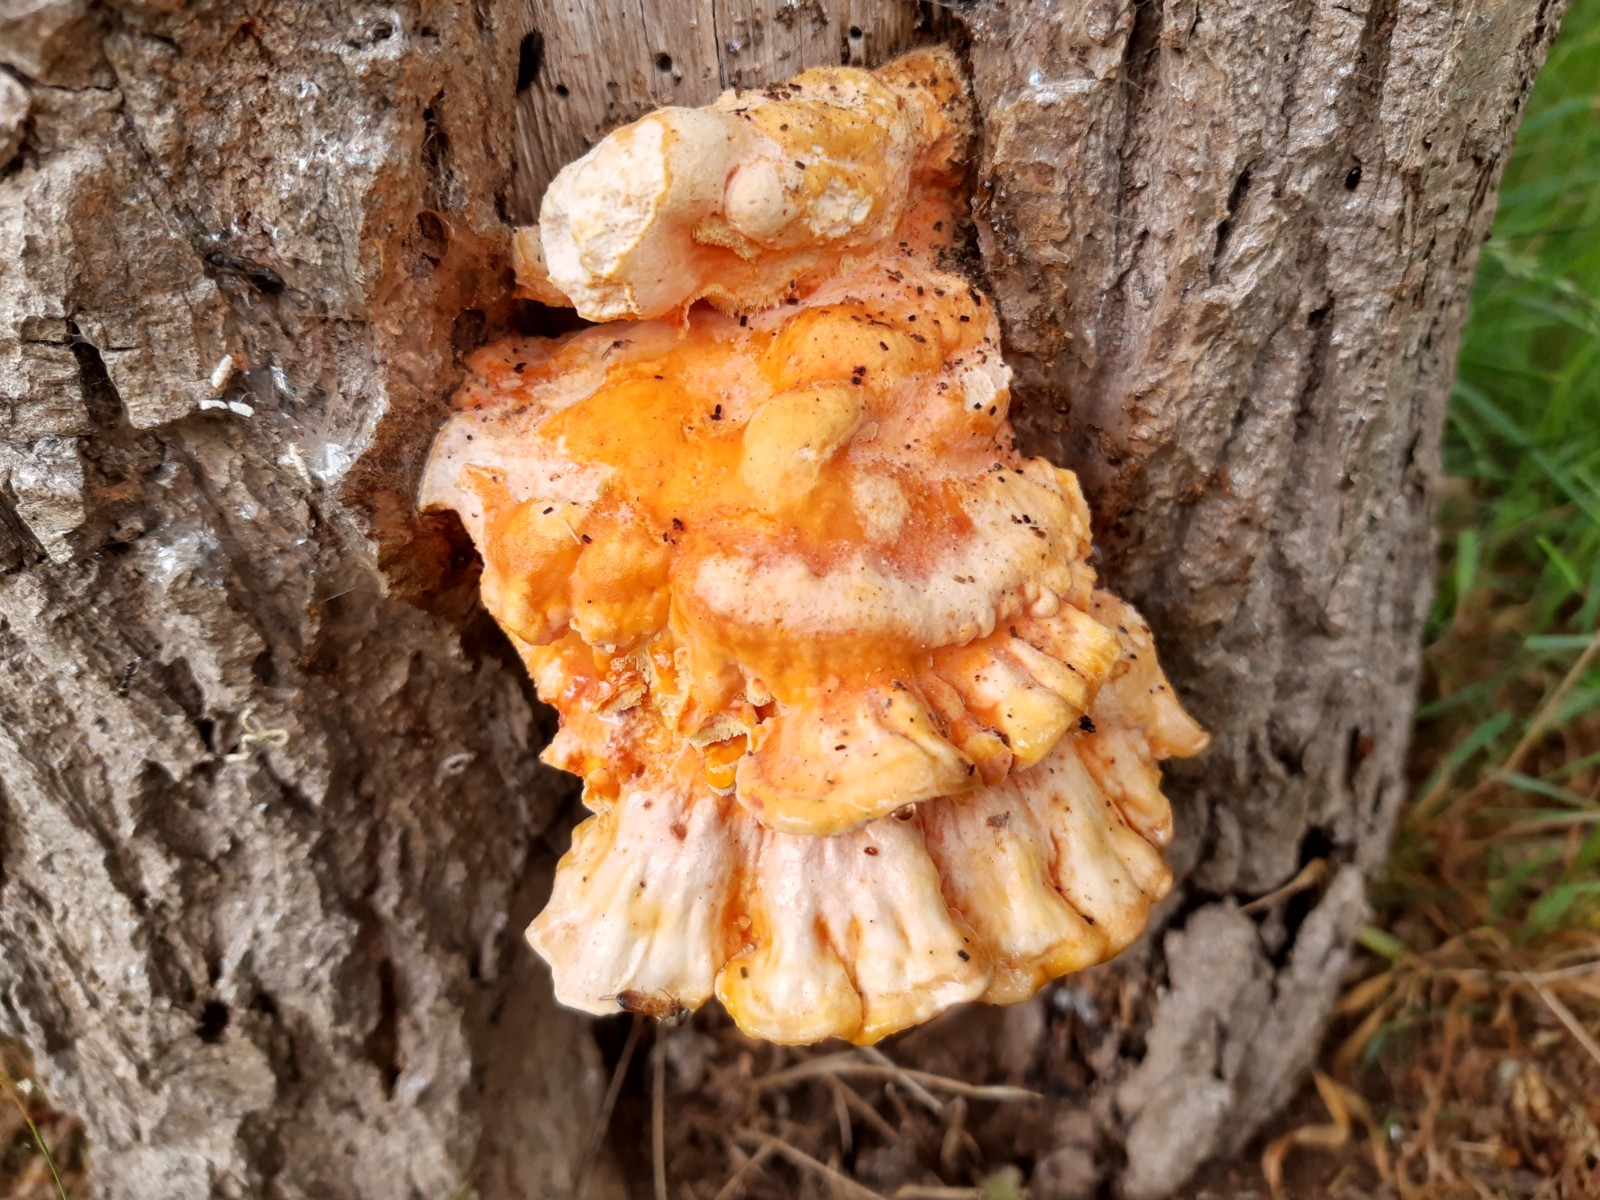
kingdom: Fungi
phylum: Basidiomycota
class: Agaricomycetes
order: Polyporales
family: Laetiporaceae
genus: Laetiporus
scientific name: Laetiporus sulphureus
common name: svovlporesvamp
